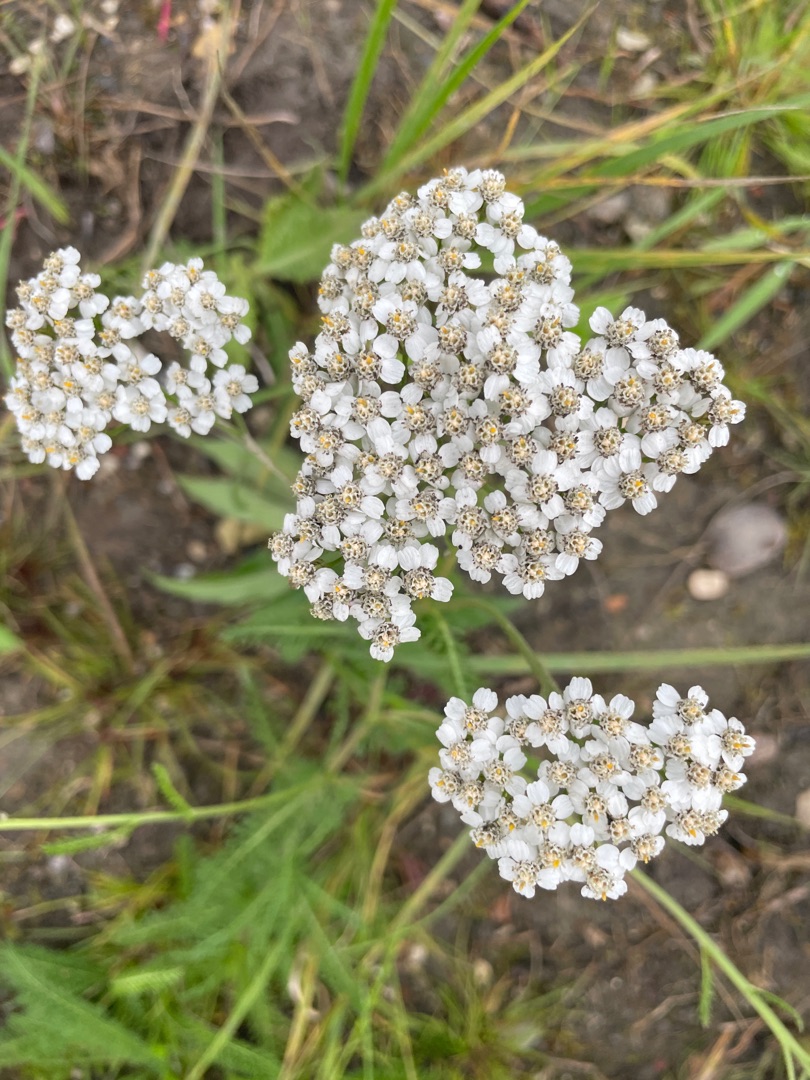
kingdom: Plantae
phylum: Tracheophyta
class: Magnoliopsida
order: Asterales
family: Asteraceae
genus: Achillea
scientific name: Achillea millefolium
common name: Almindelig røllike
